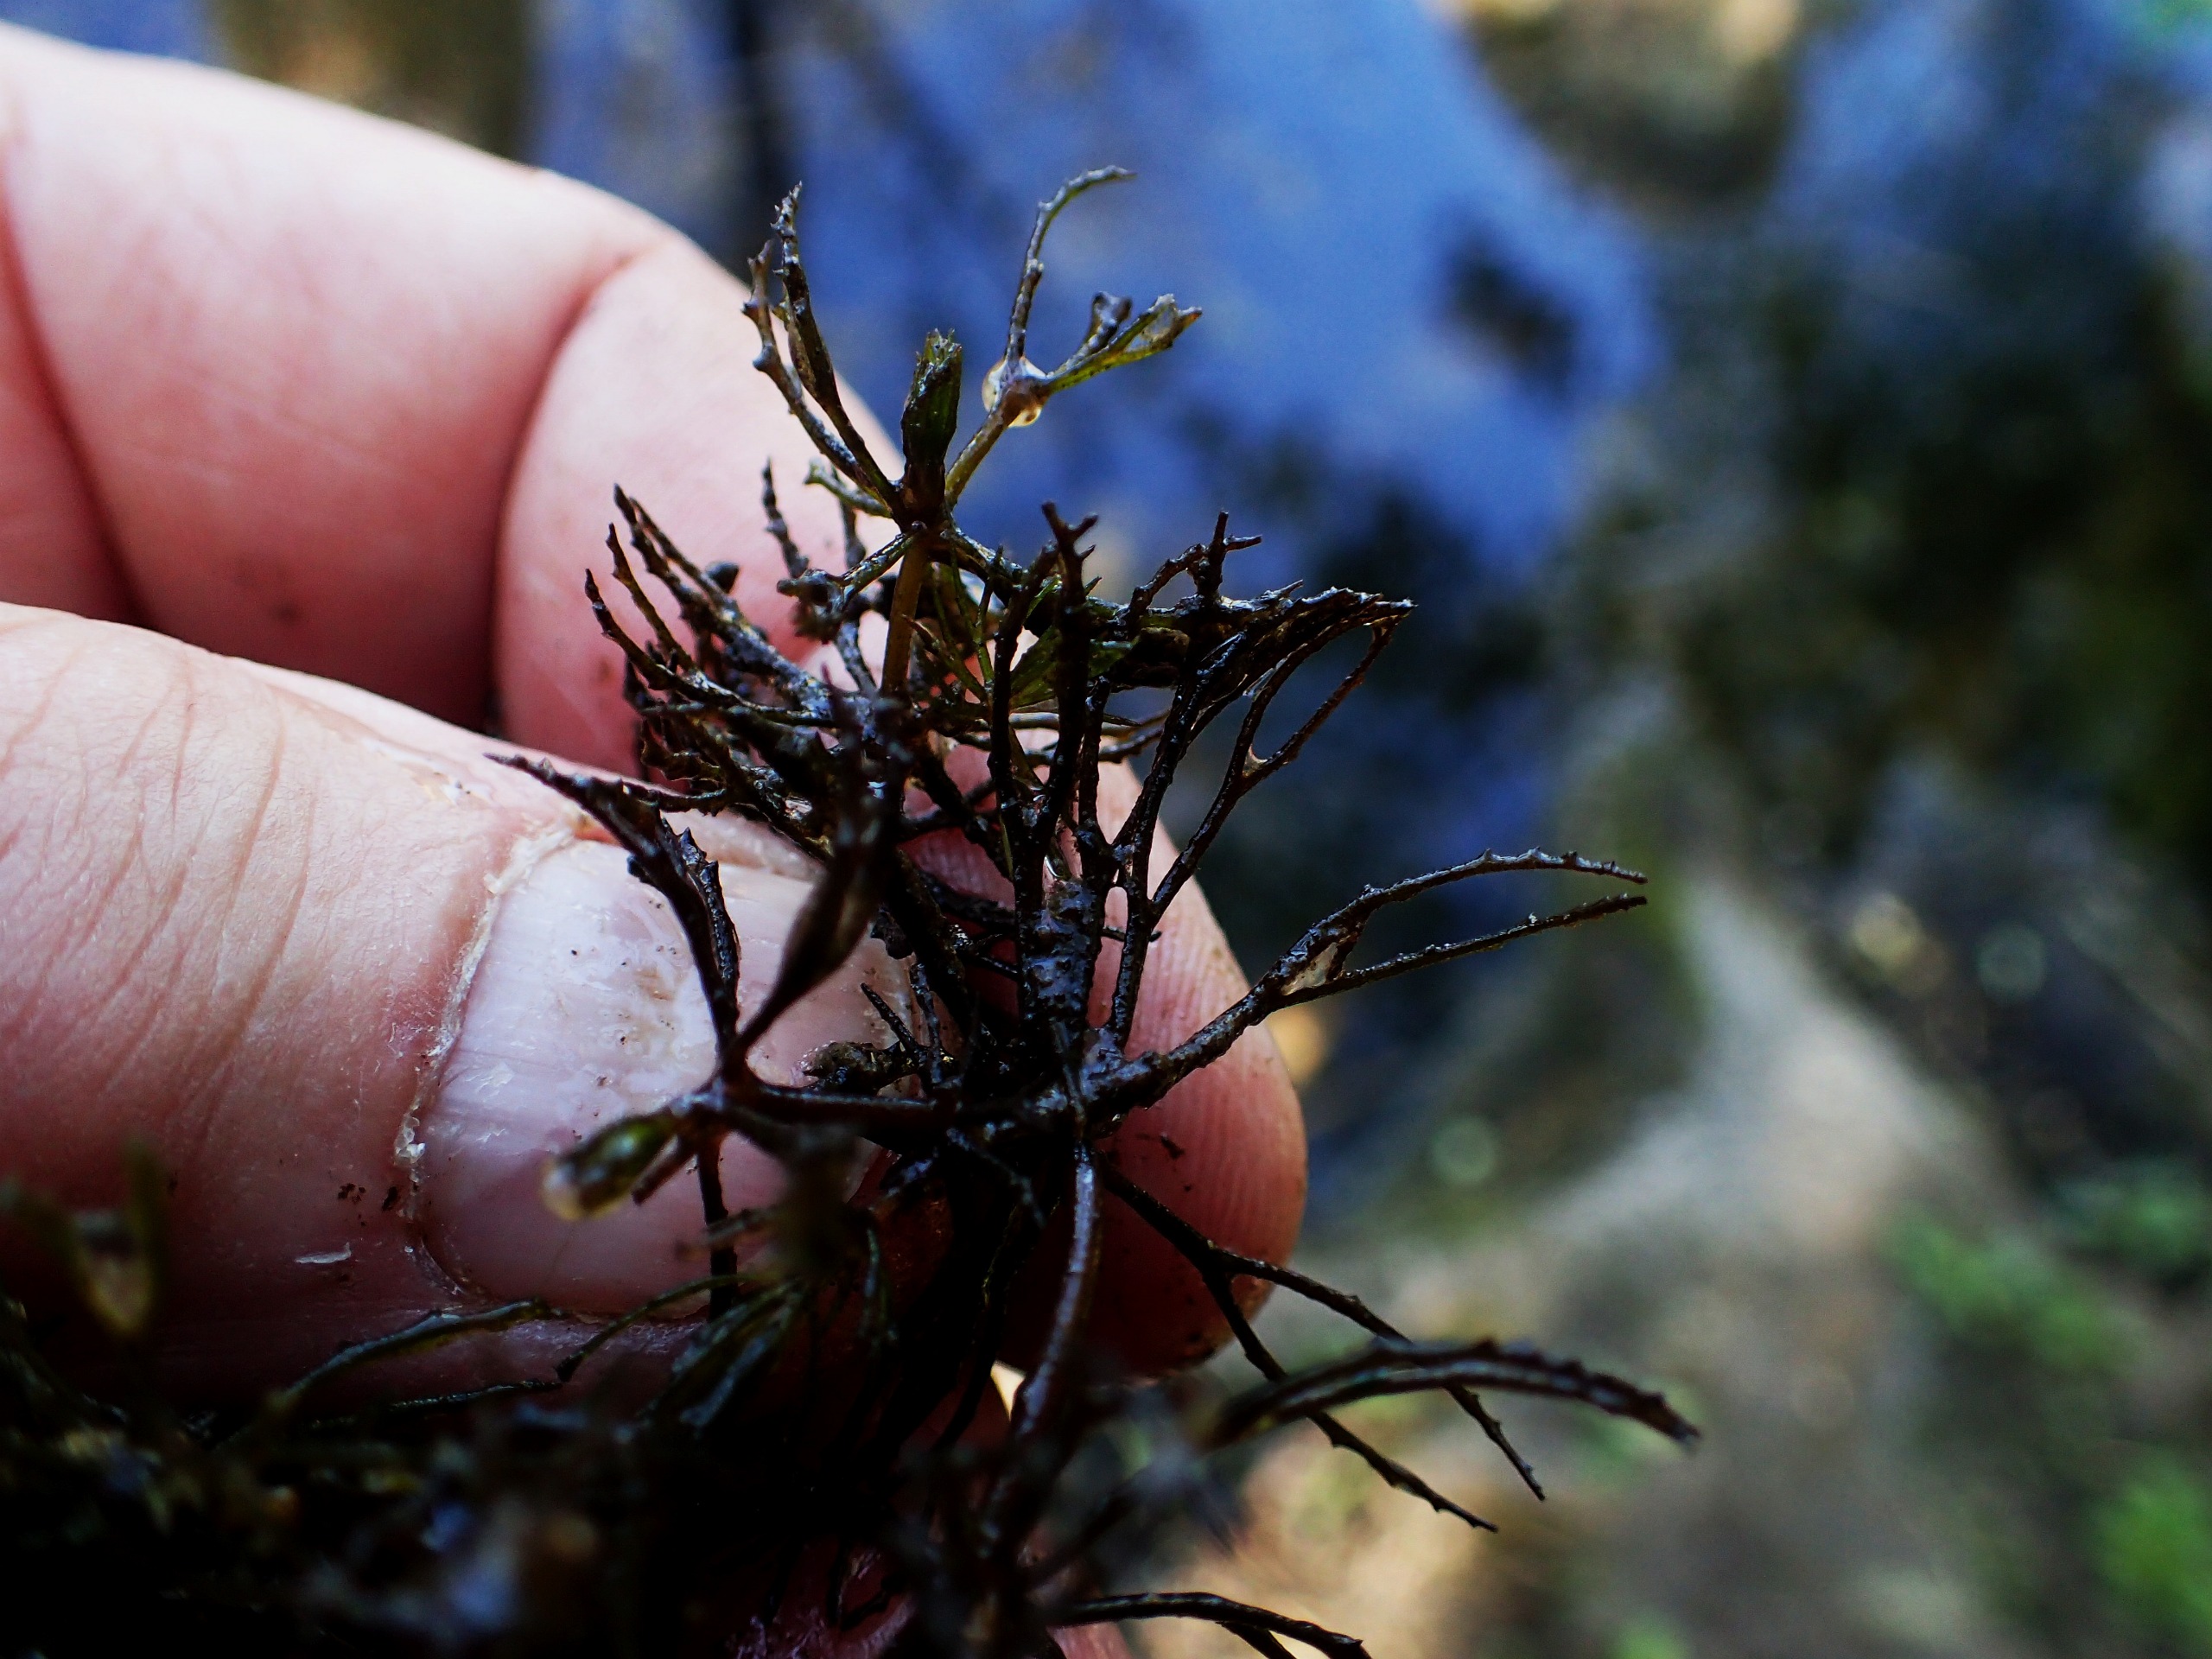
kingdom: Plantae
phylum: Tracheophyta
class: Magnoliopsida
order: Ceratophyllales
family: Ceratophyllaceae
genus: Ceratophyllum
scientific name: Ceratophyllum demersum
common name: Tornfrøet hornblad
